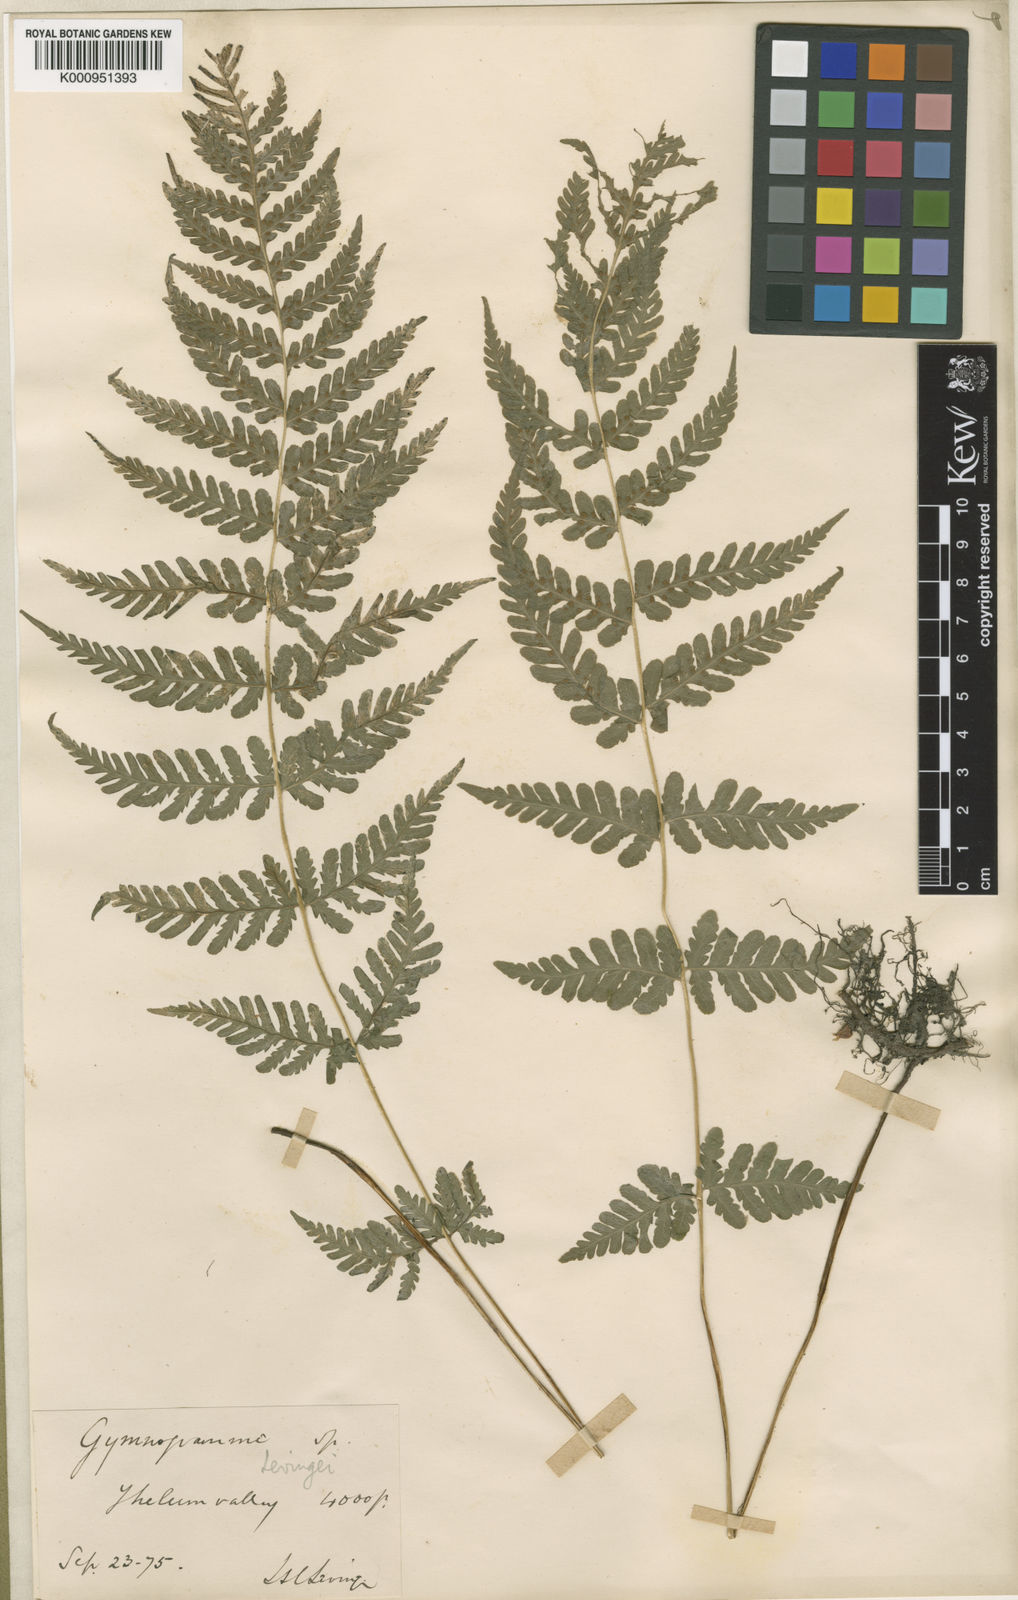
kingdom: Plantae
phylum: Tracheophyta
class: Polypodiopsida
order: Polypodiales
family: Thelypteridaceae
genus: Pseudophegopteris
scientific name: Pseudophegopteris levingei
